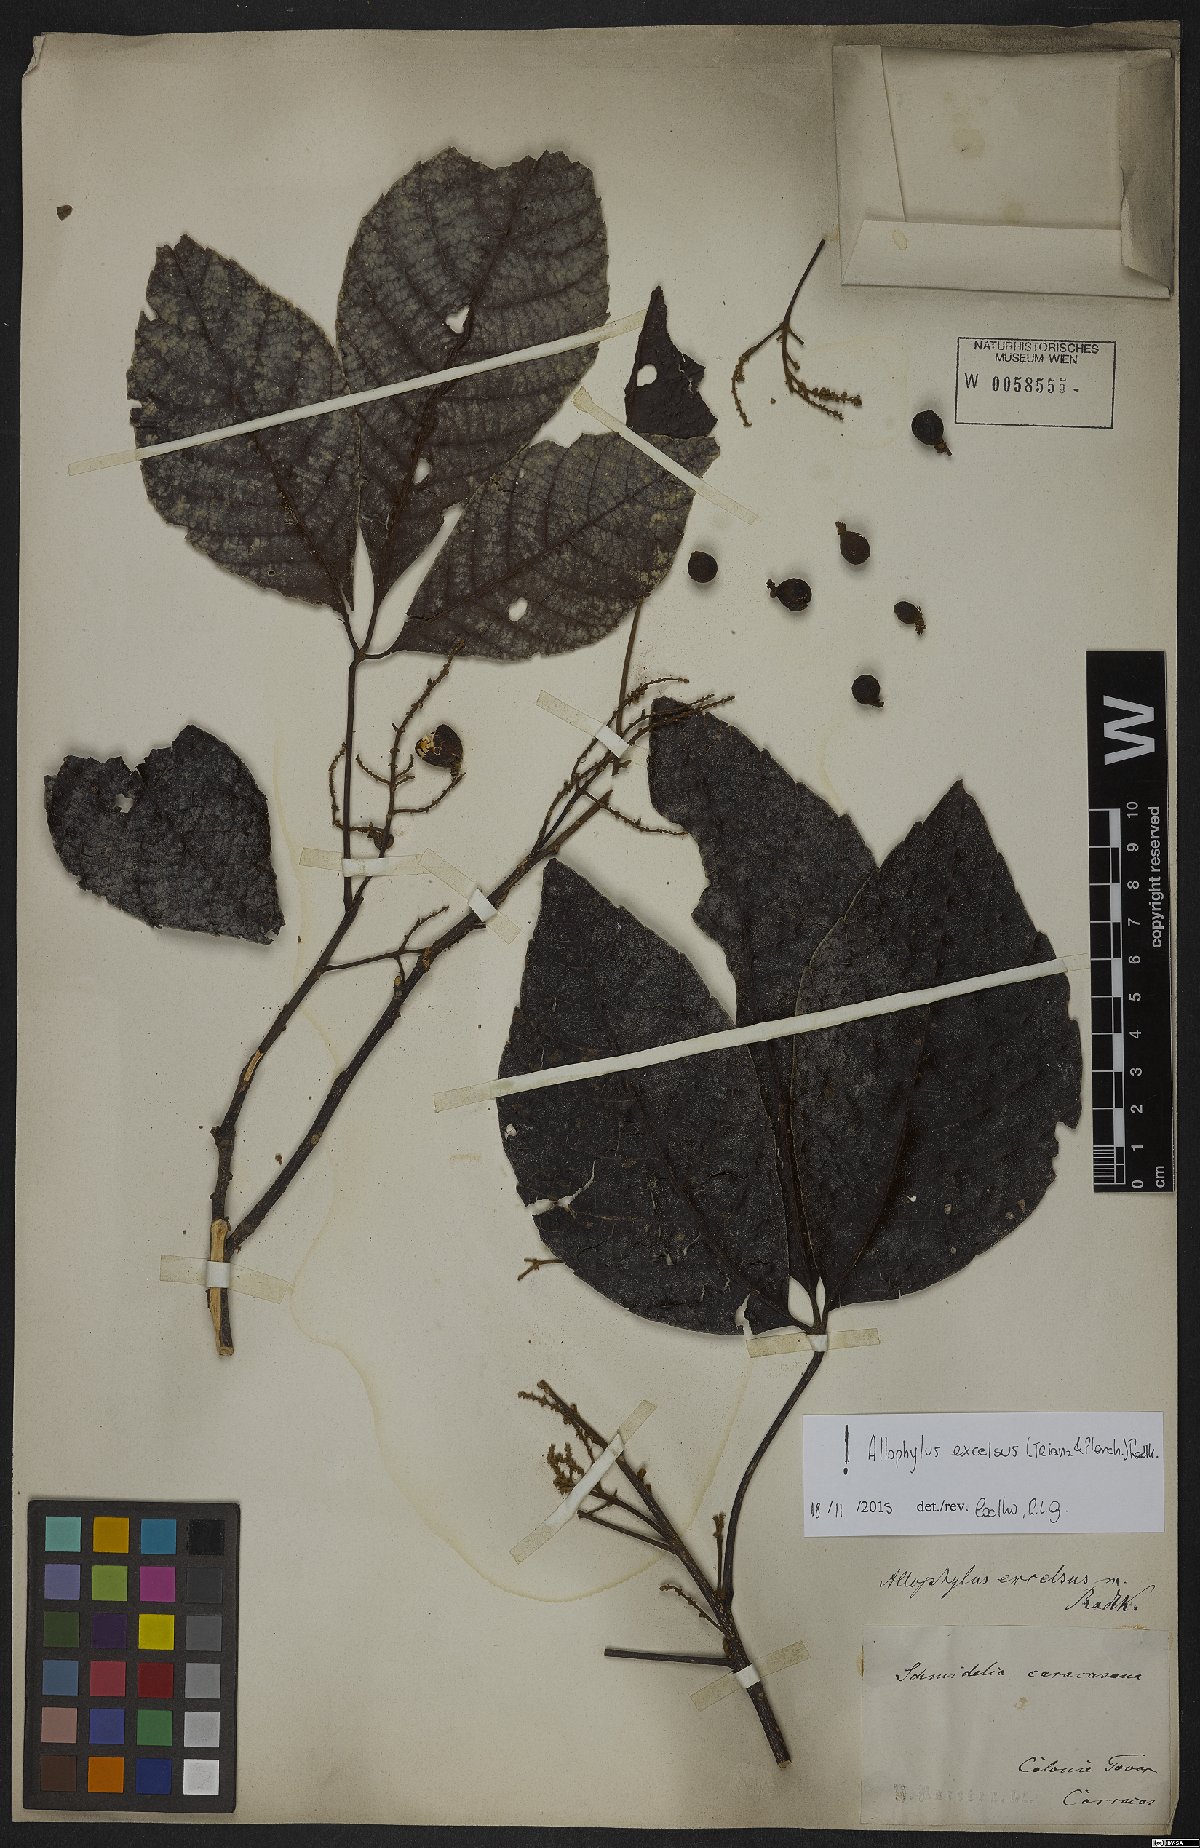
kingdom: Plantae
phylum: Tracheophyta
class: Magnoliopsida
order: Sapindales
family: Sapindaceae
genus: Allophylus
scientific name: Allophylus excelsus
